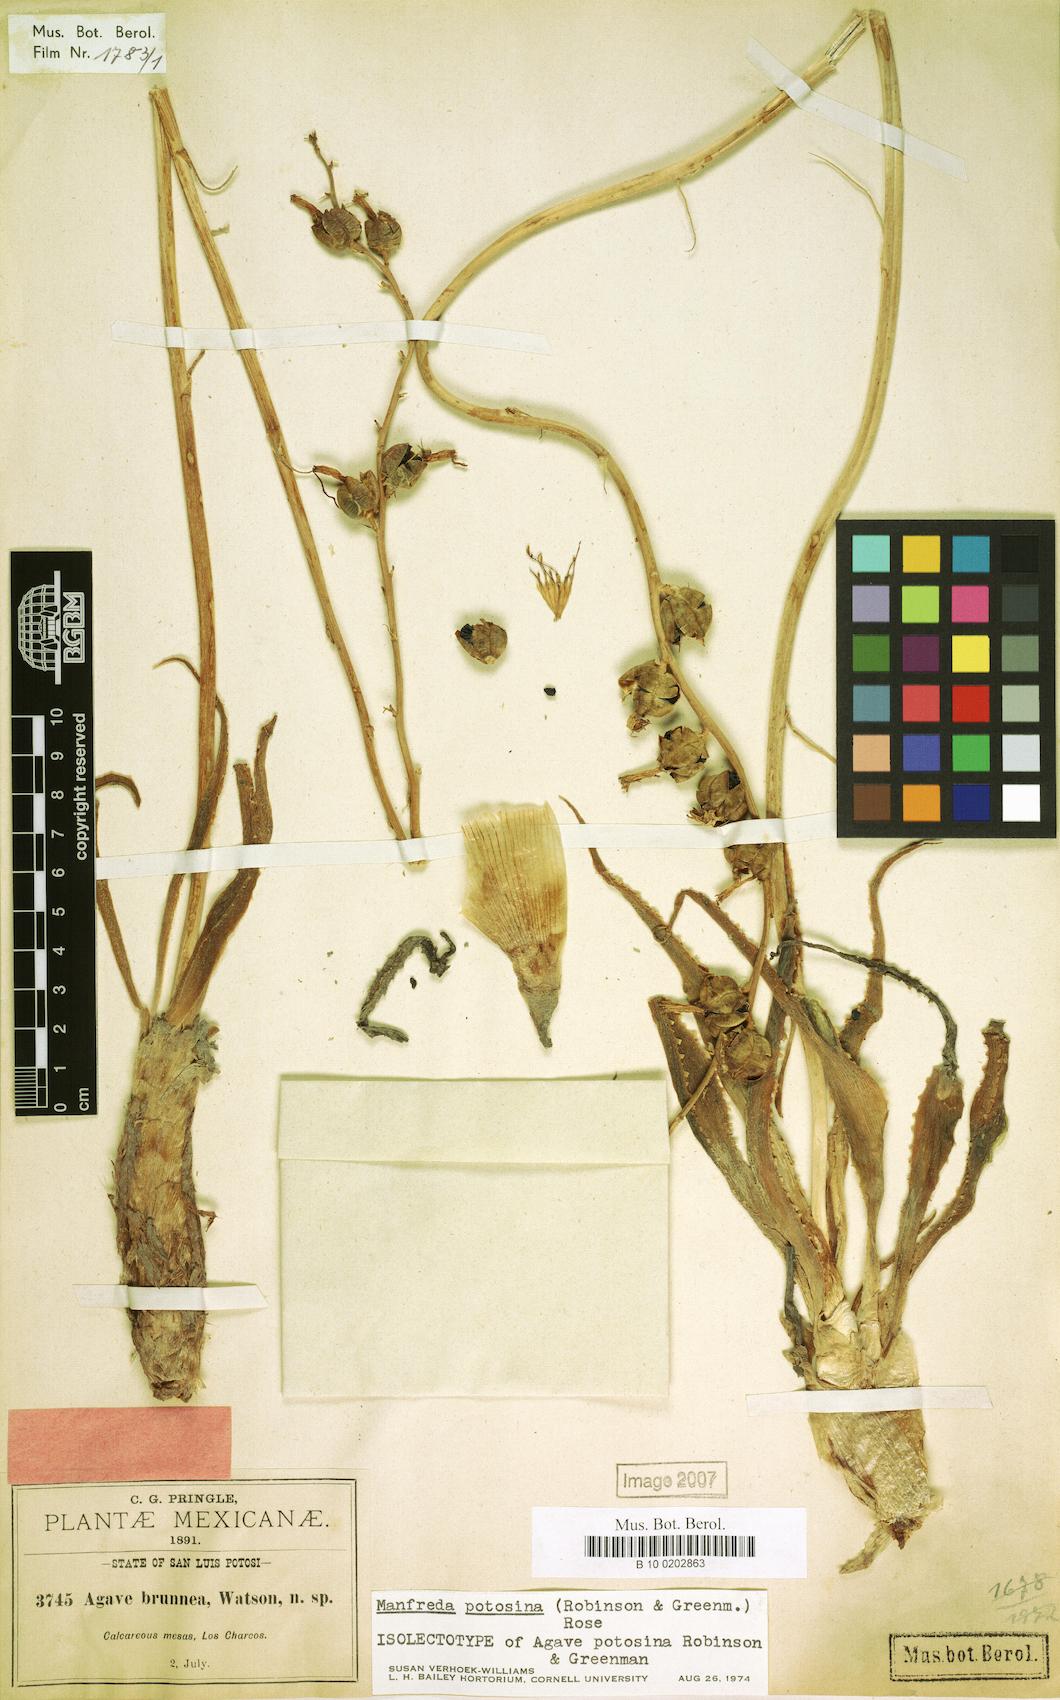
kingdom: Plantae
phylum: Tracheophyta
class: Liliopsida
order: Asparagales
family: Asparagaceae
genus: Agave
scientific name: Agave potosina
